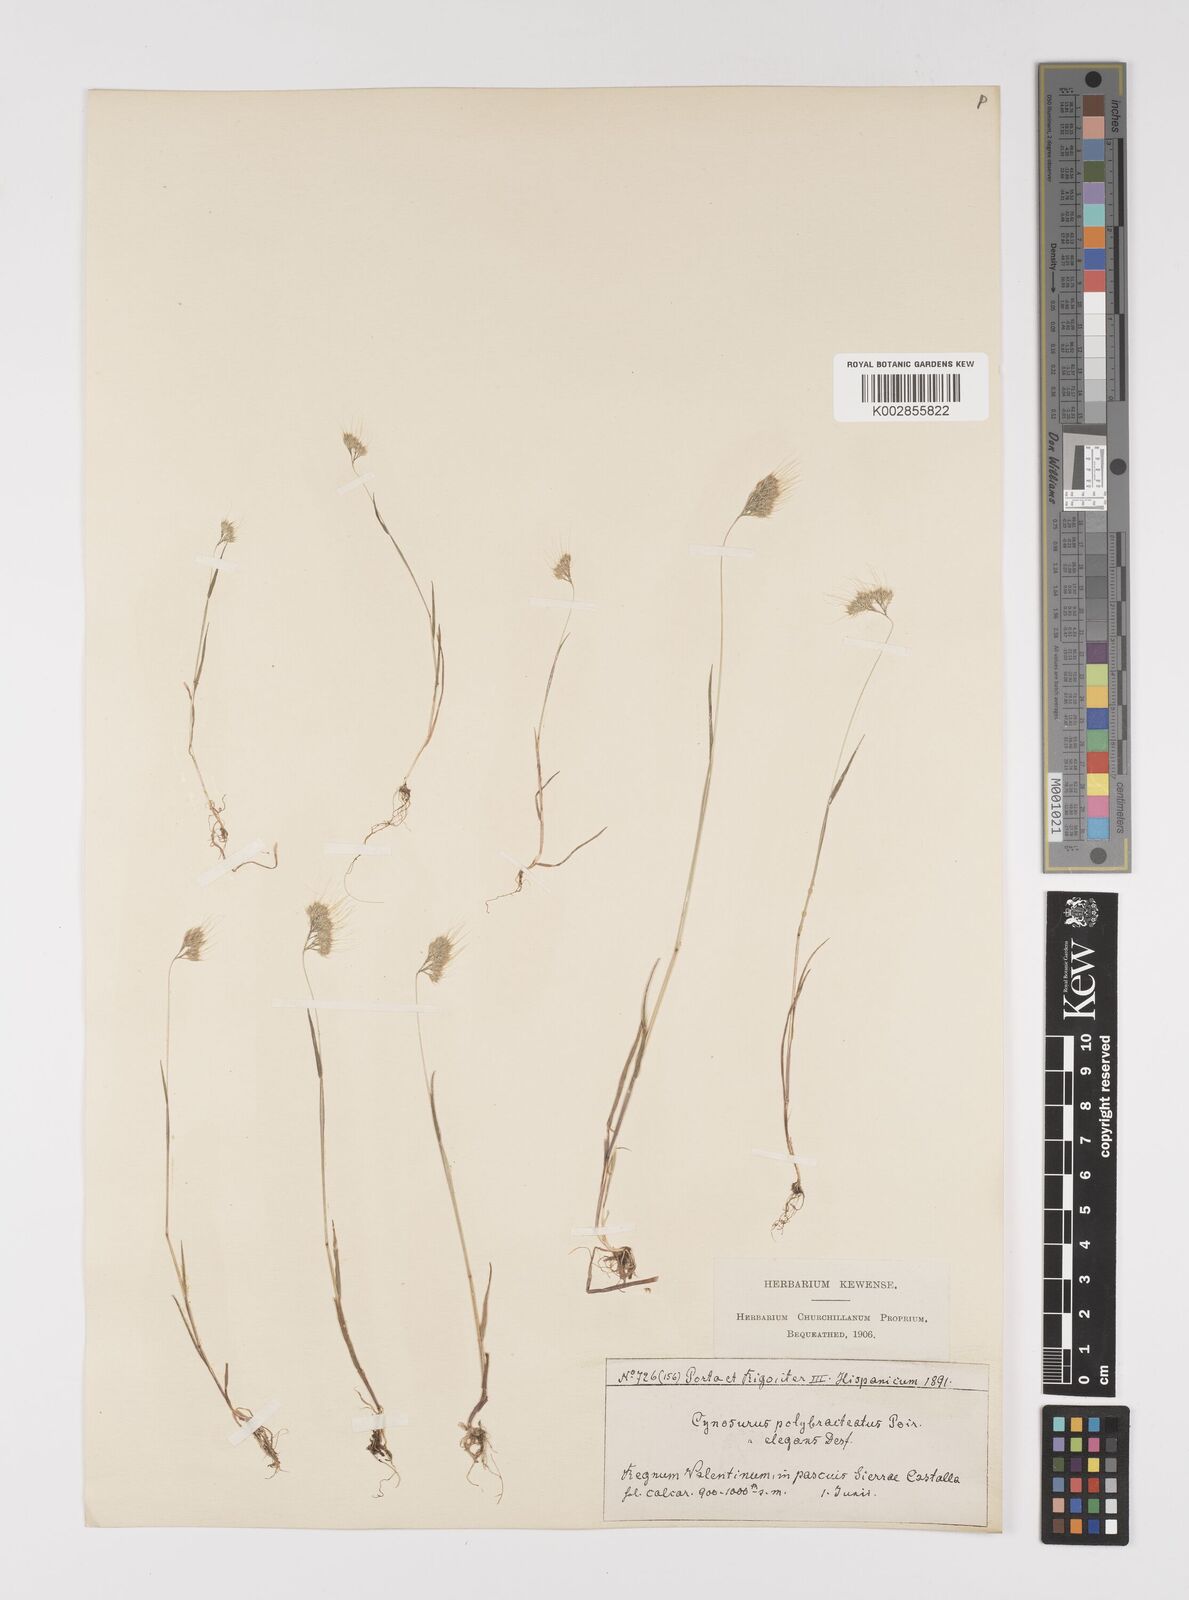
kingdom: Plantae
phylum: Tracheophyta
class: Liliopsida
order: Poales
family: Poaceae
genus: Cynosurus
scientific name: Cynosurus elegans
